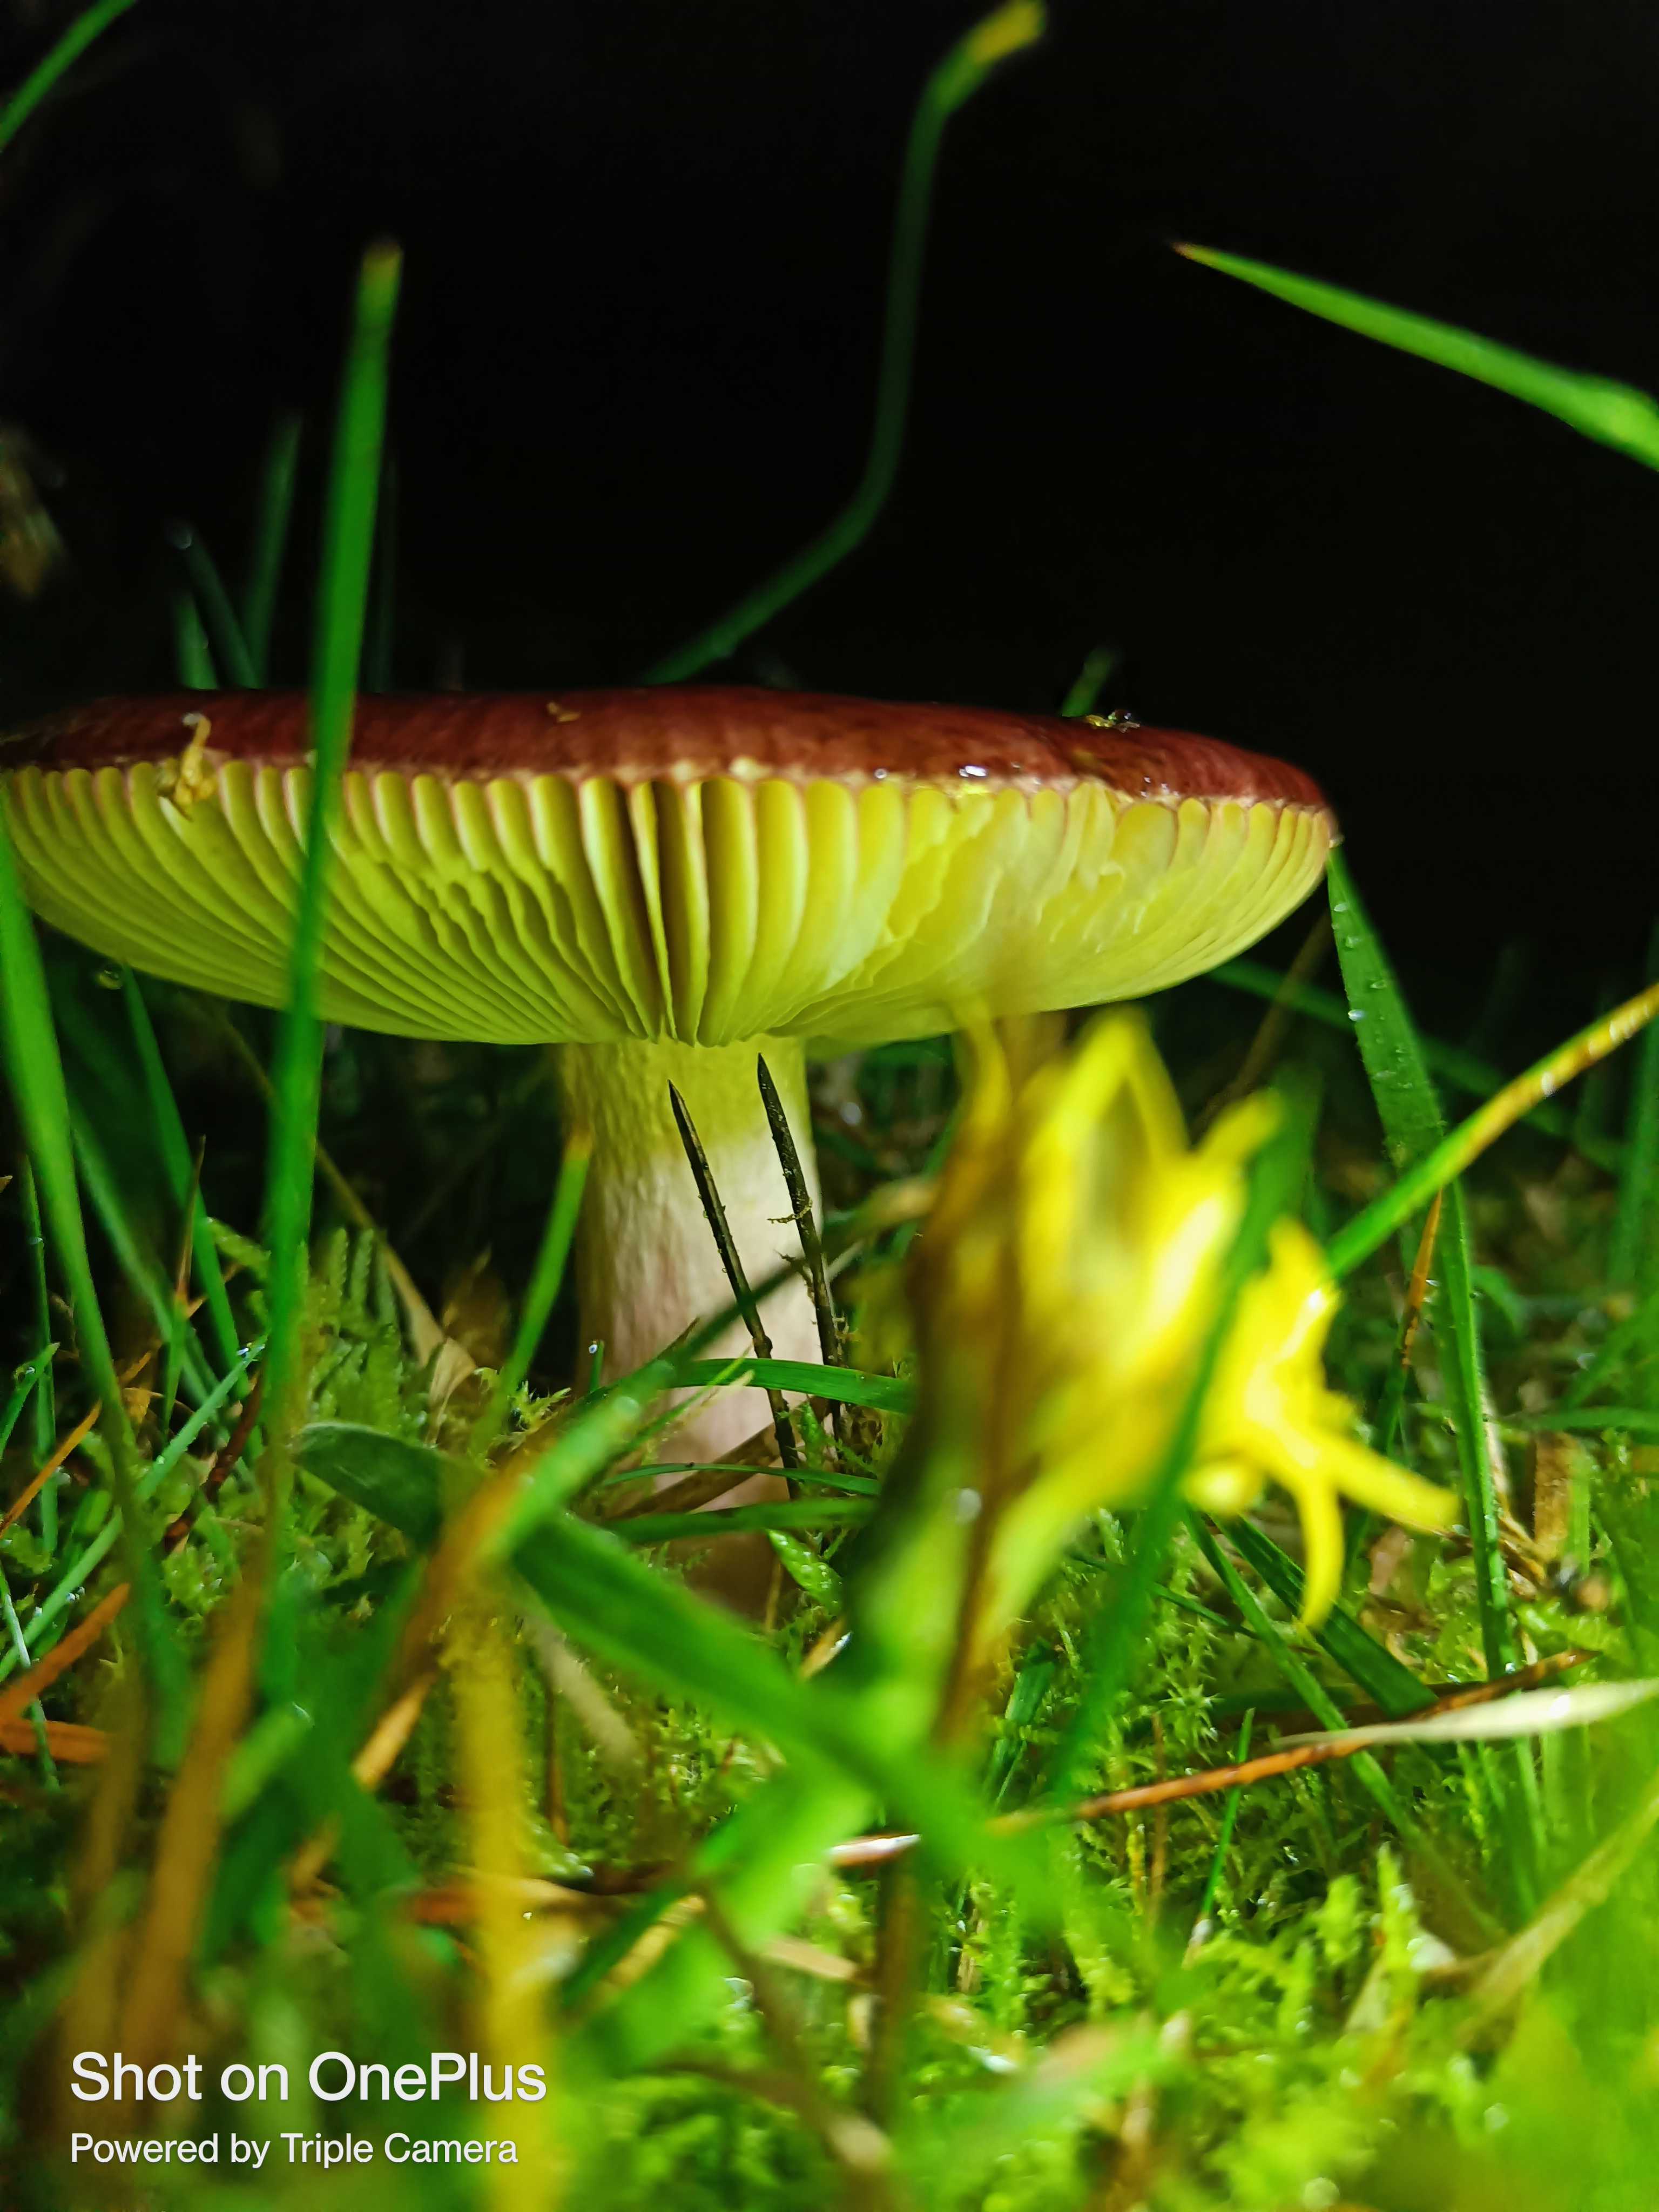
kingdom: Fungi
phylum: Basidiomycota
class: Agaricomycetes
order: Russulales
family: Russulaceae
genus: Russula
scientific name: Russula
